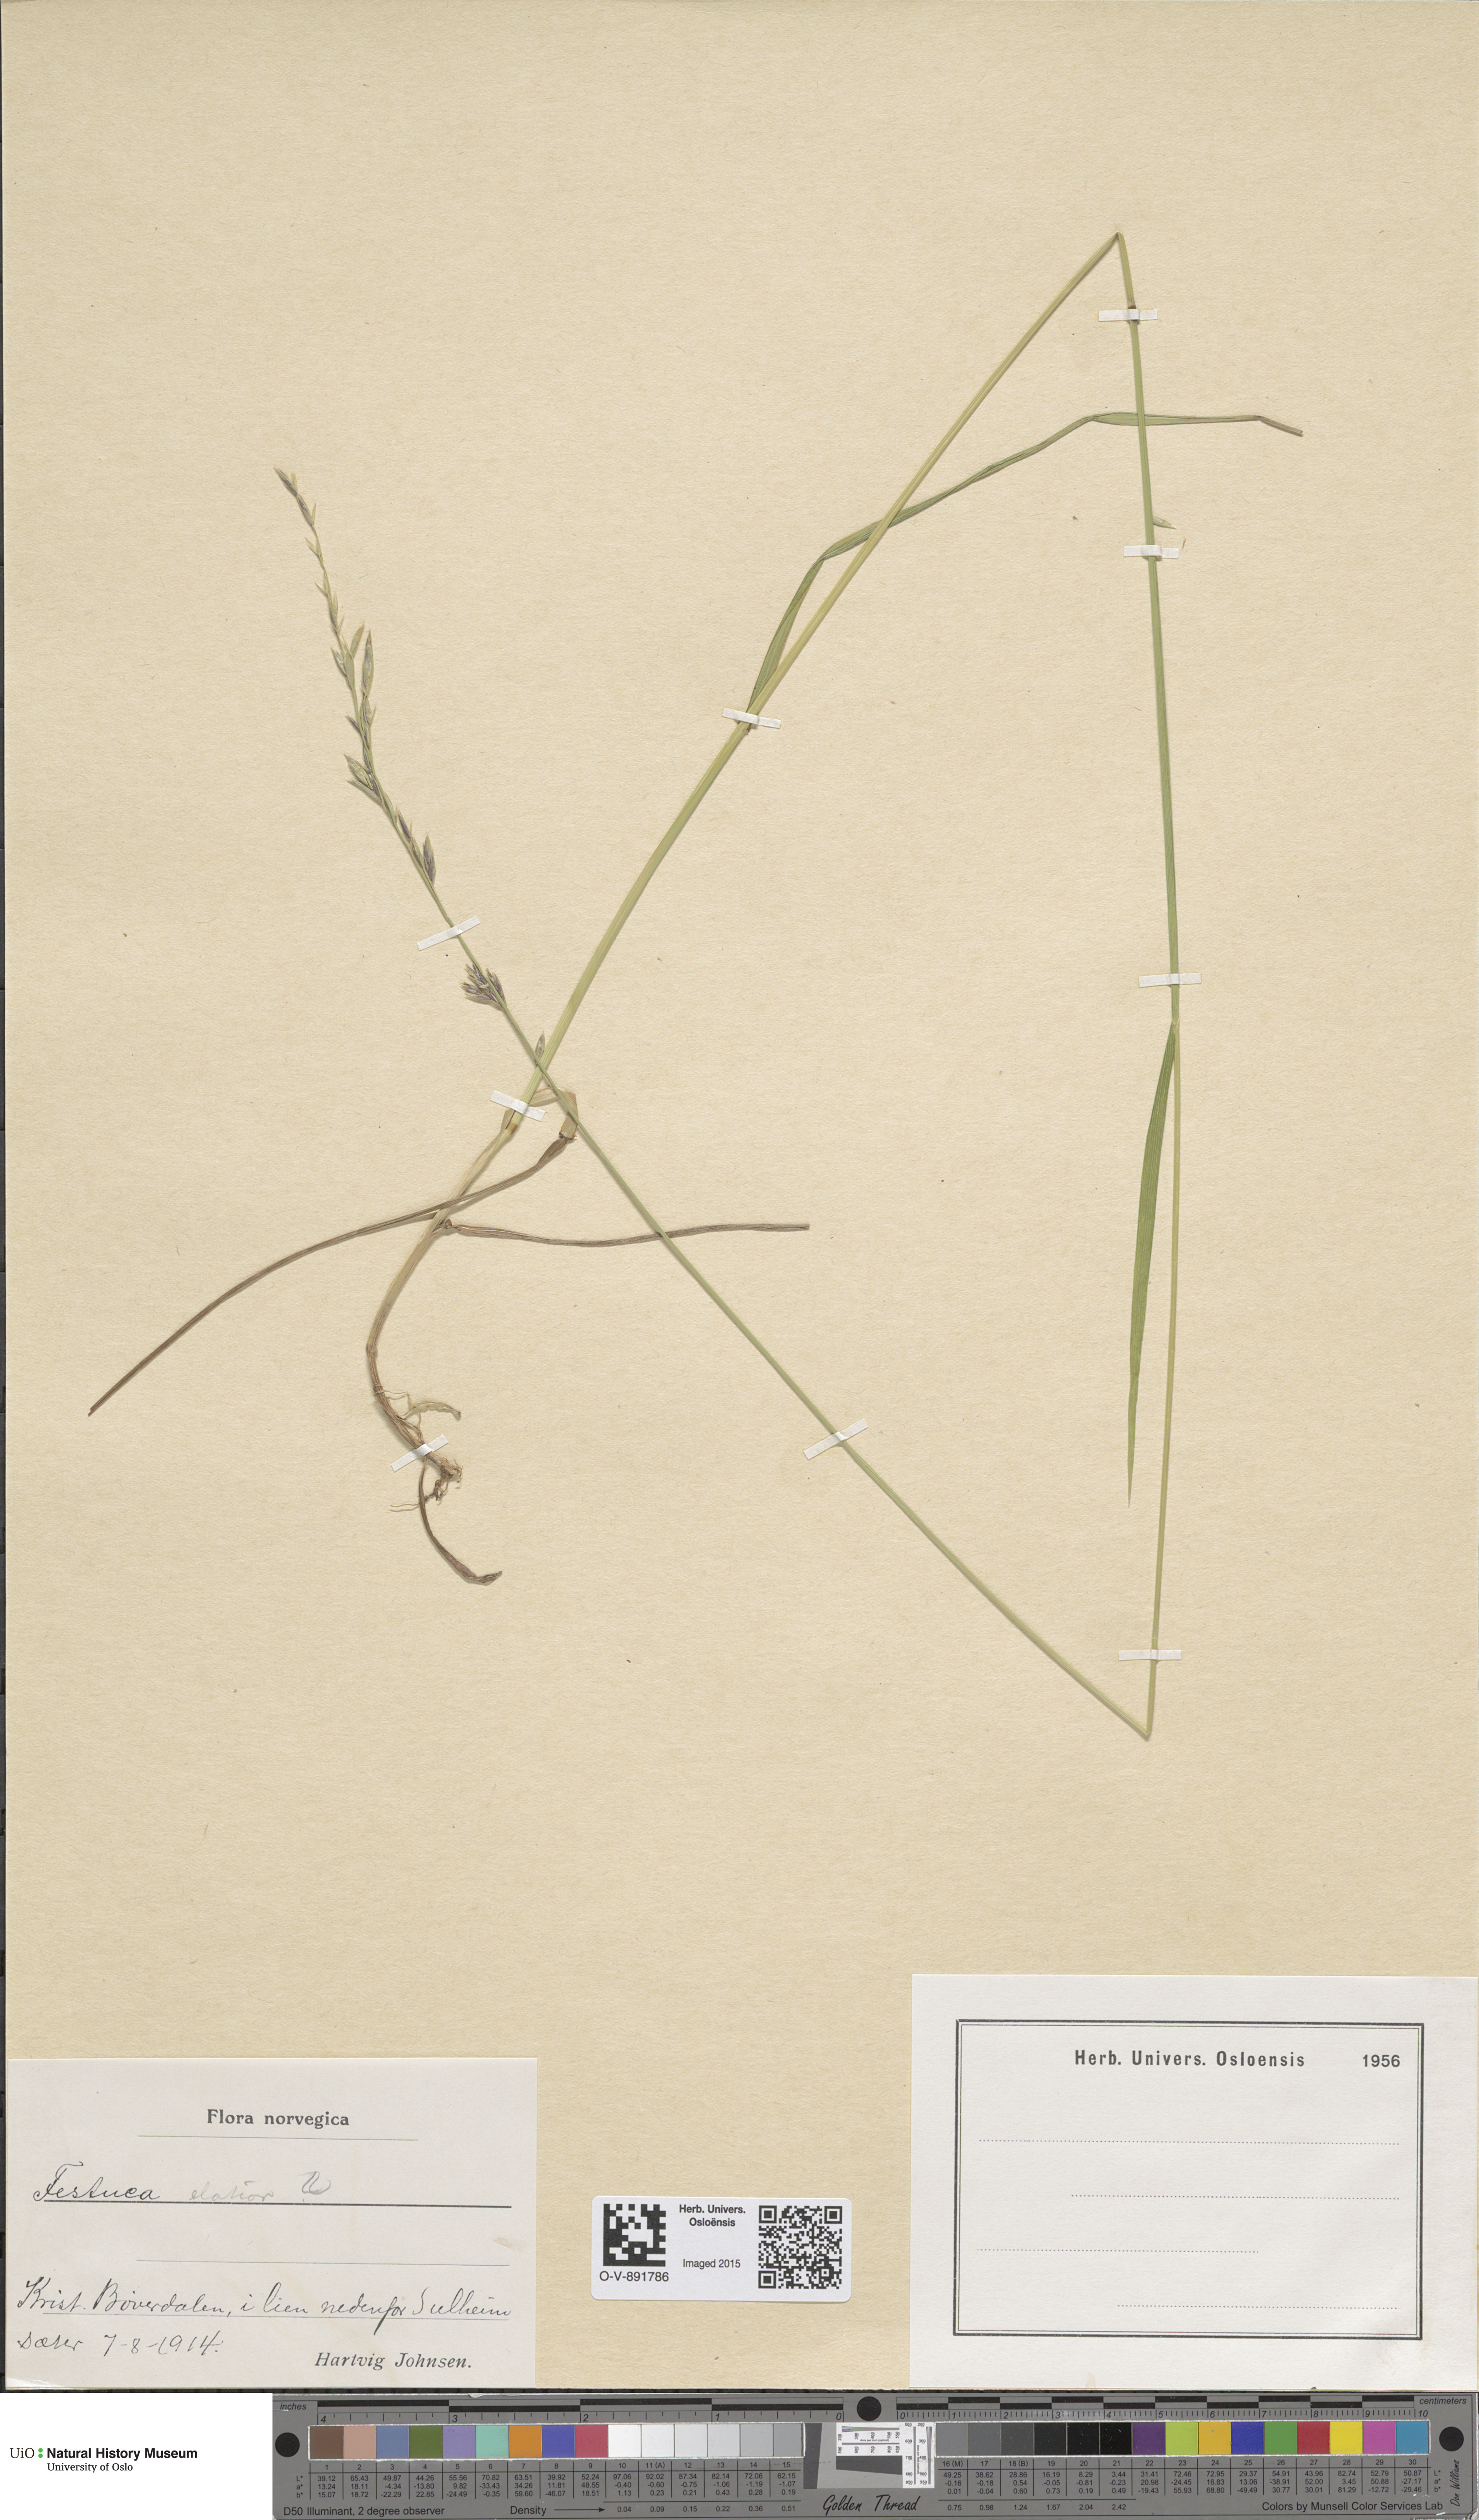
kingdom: Plantae
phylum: Tracheophyta
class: Liliopsida
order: Poales
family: Poaceae
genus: Lolium
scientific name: Lolium arundinaceum
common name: Reed fescue
